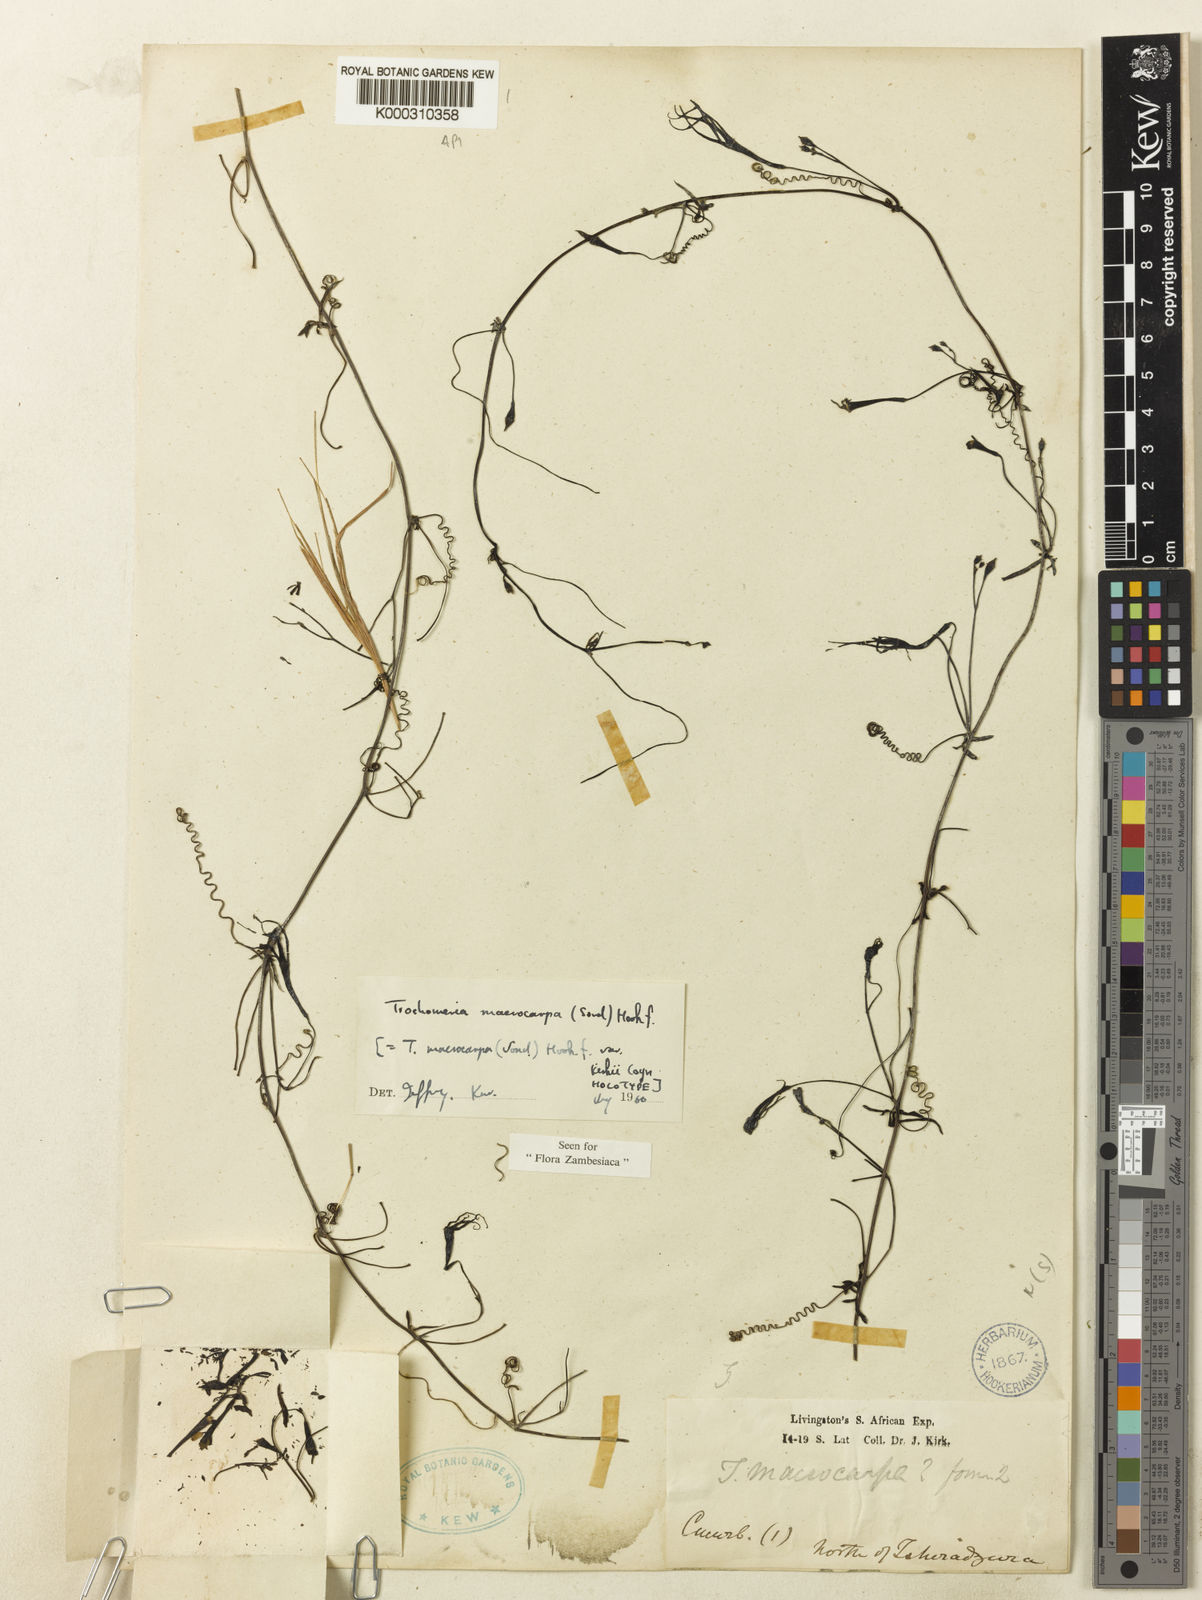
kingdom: Plantae
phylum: Tracheophyta
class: Magnoliopsida
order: Cucurbitales
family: Cucurbitaceae
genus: Trochomeria
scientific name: Trochomeria
